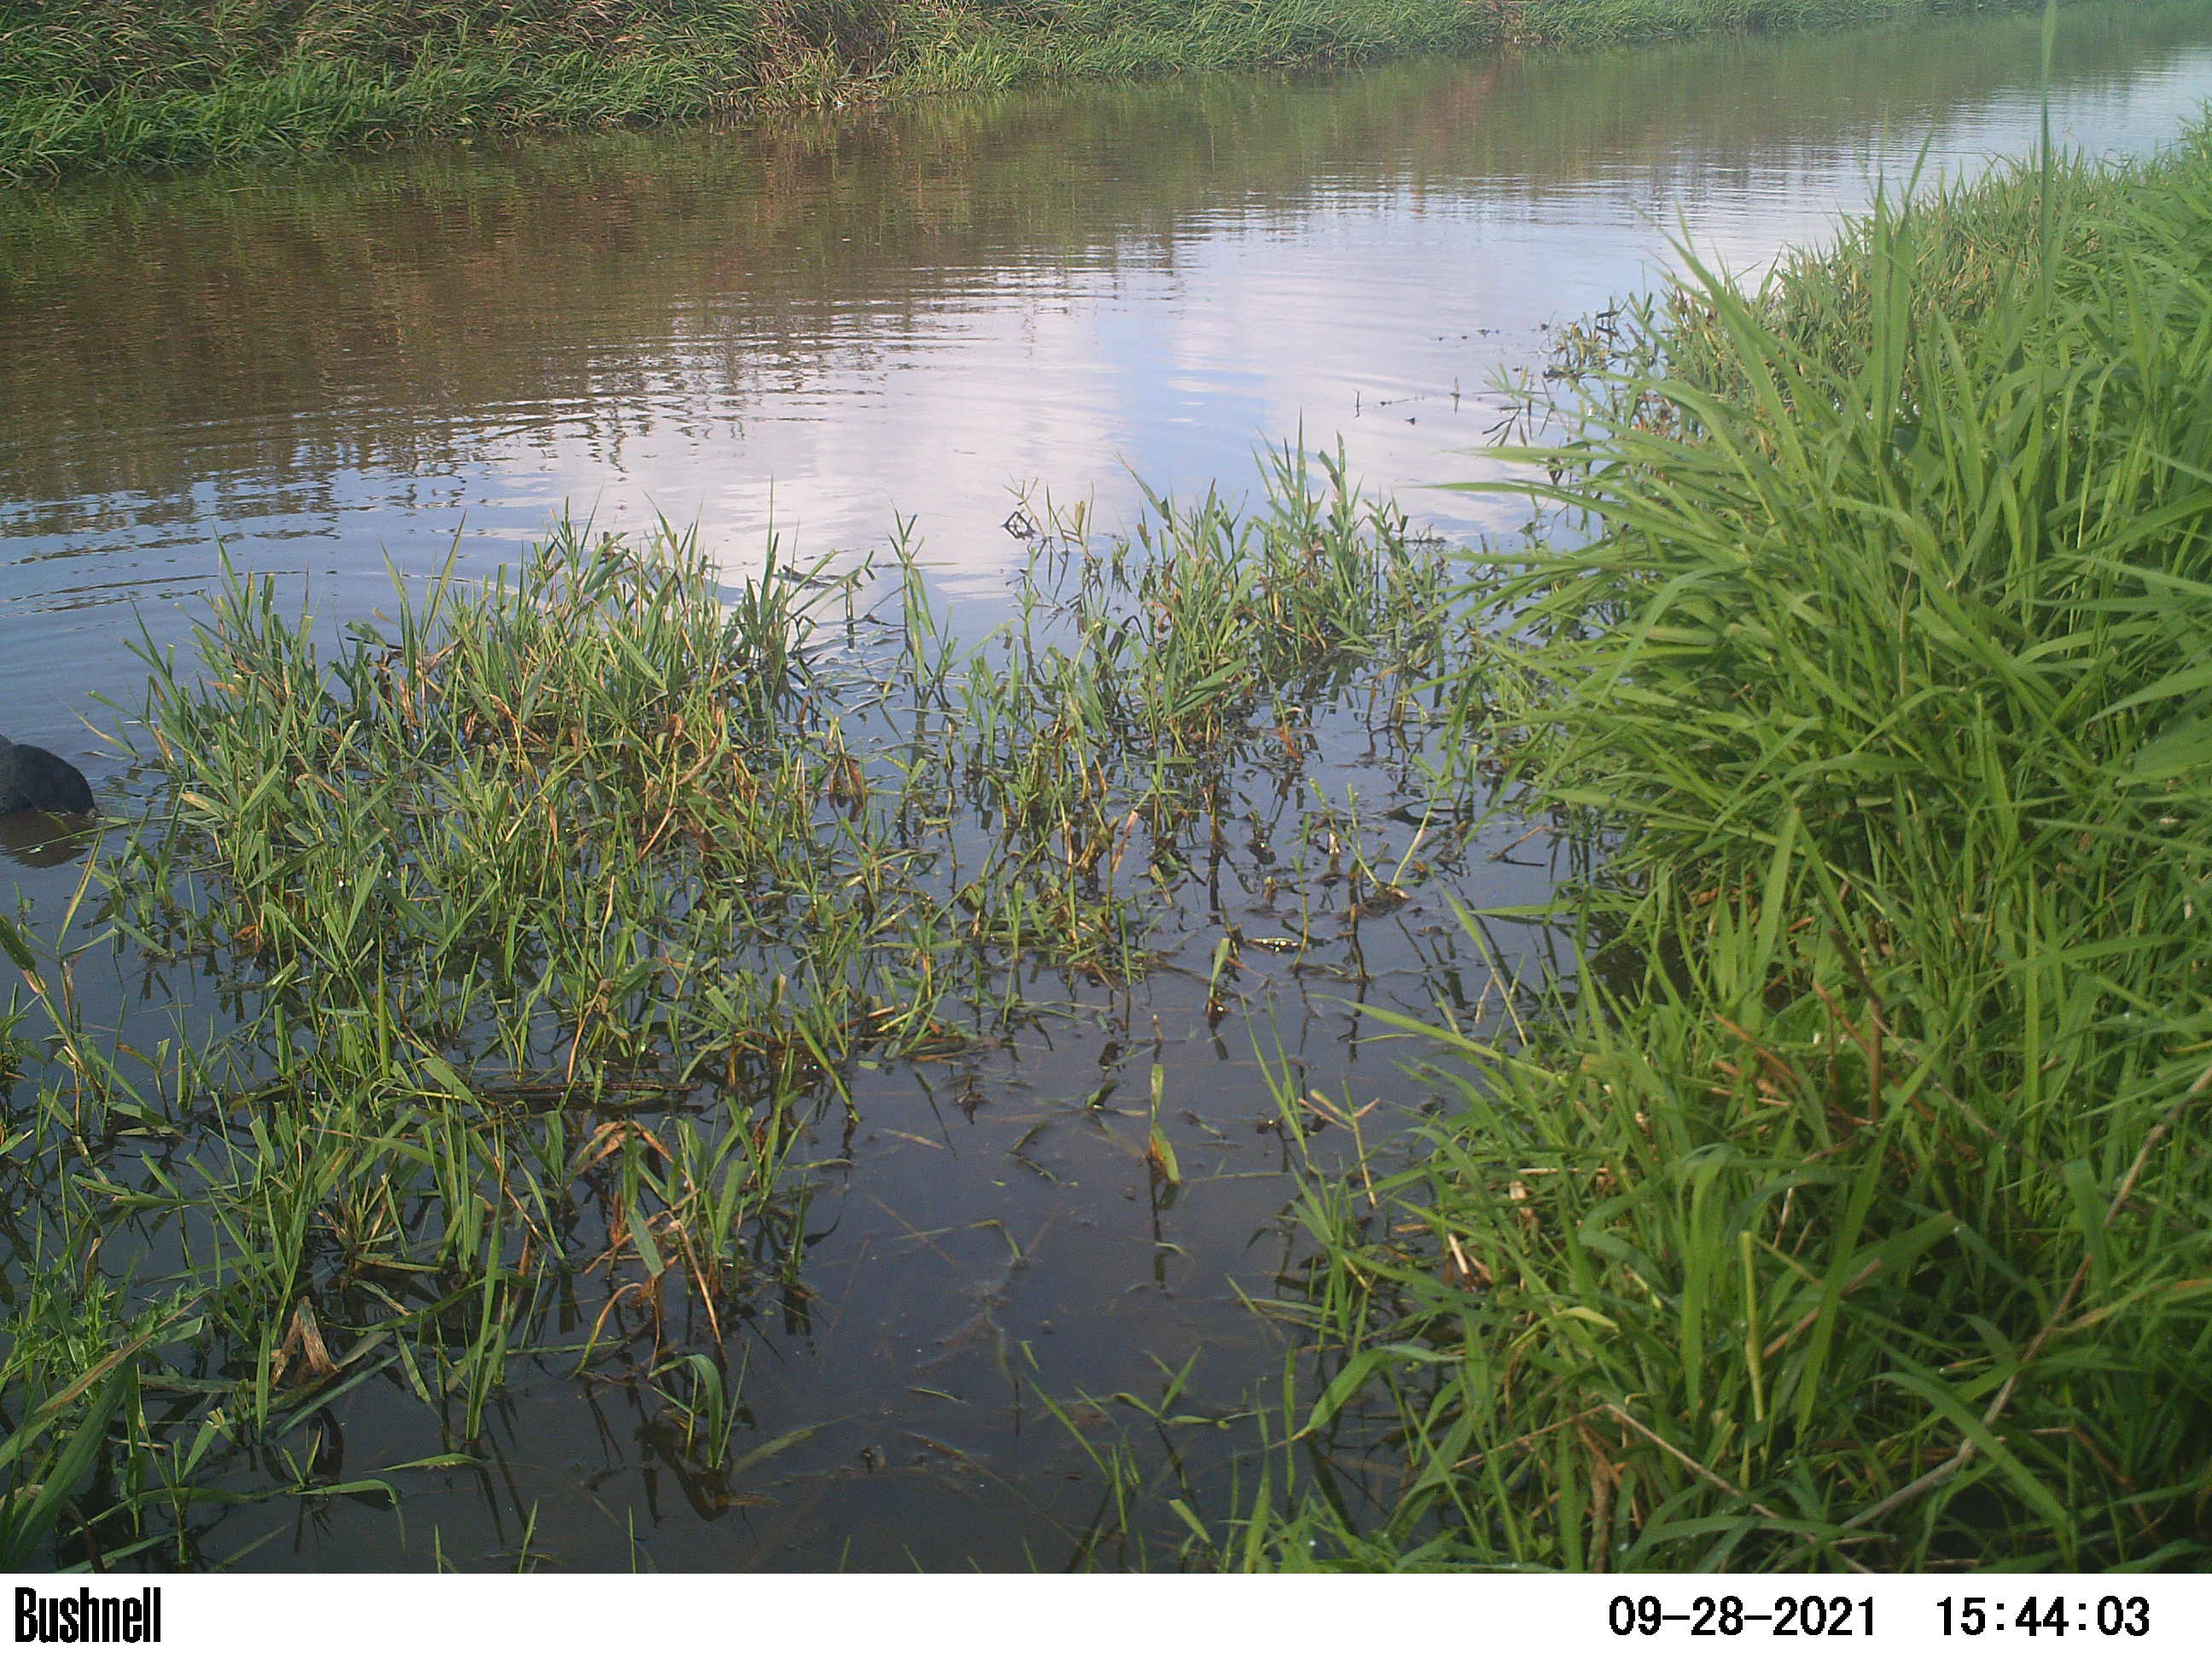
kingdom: Animalia
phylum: Chordata
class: Aves
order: Gruiformes
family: Rallidae
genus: Fulica
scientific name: Fulica atra
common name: Eurasian coot
